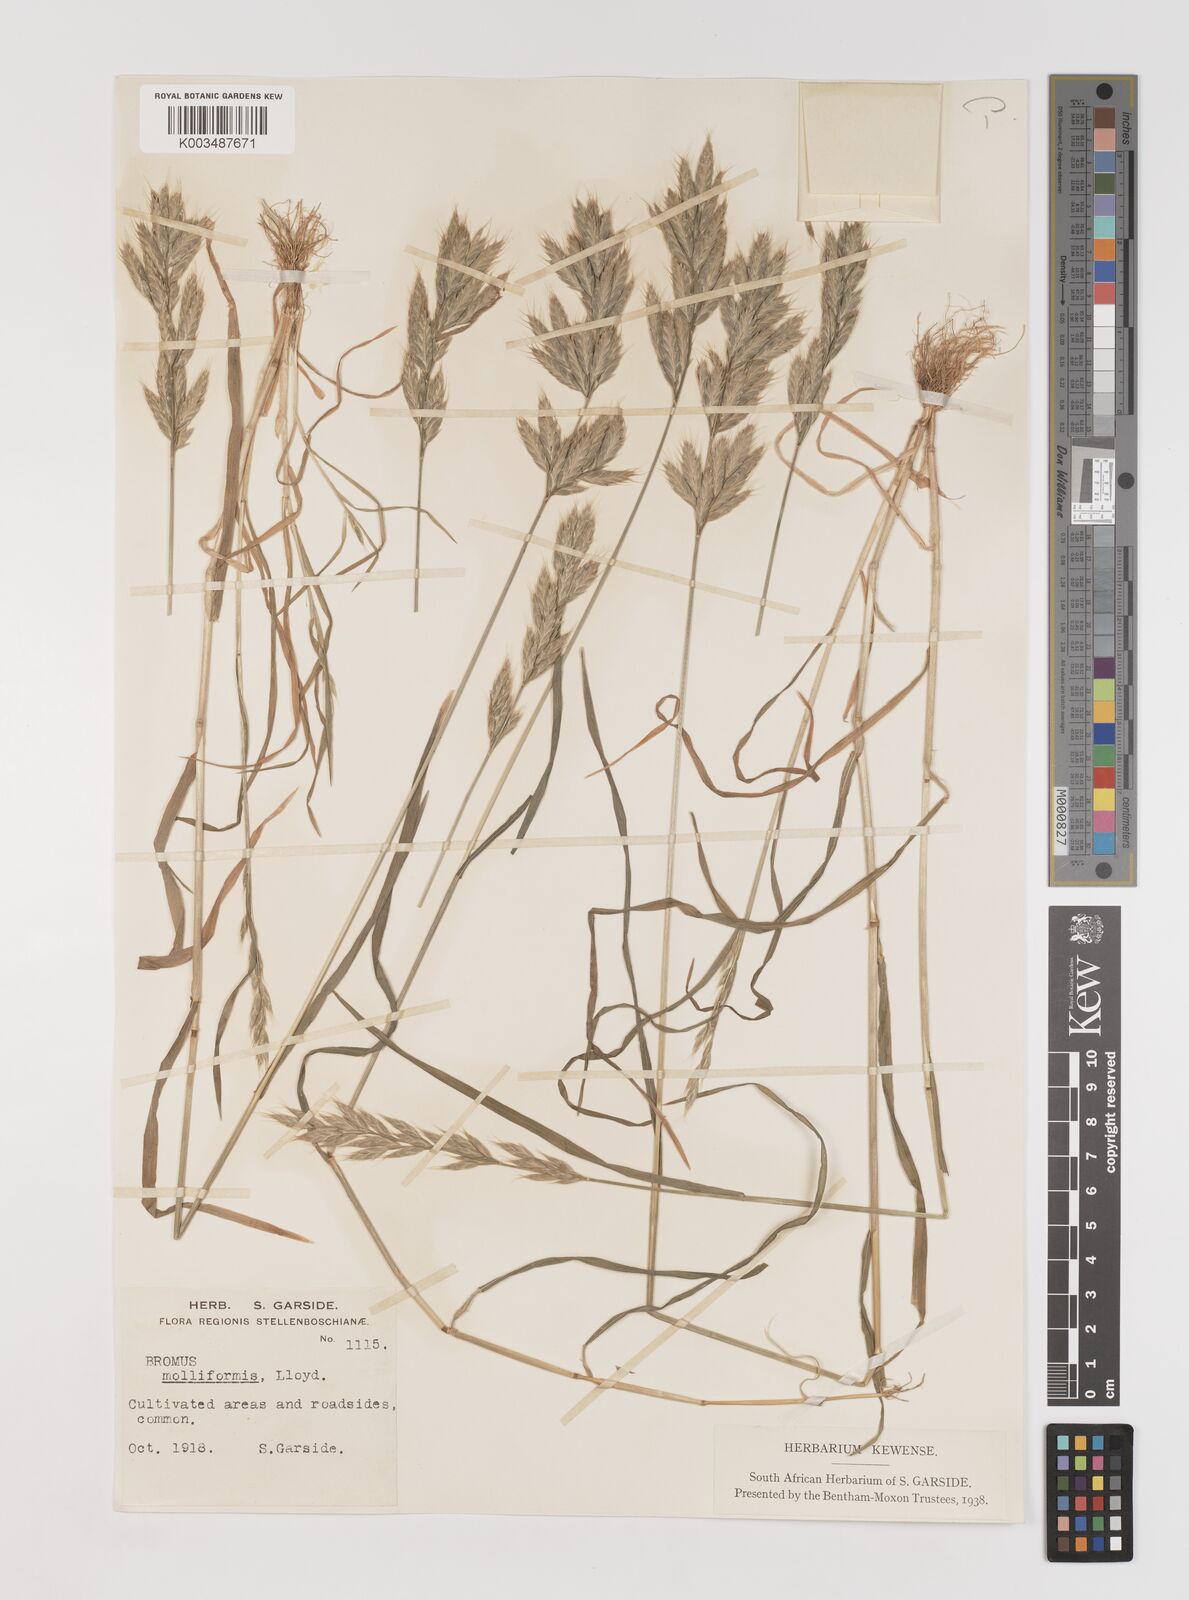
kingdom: Plantae
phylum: Tracheophyta
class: Liliopsida
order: Poales
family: Poaceae
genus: Bromus
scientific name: Bromus hordeaceus
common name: Soft brome
